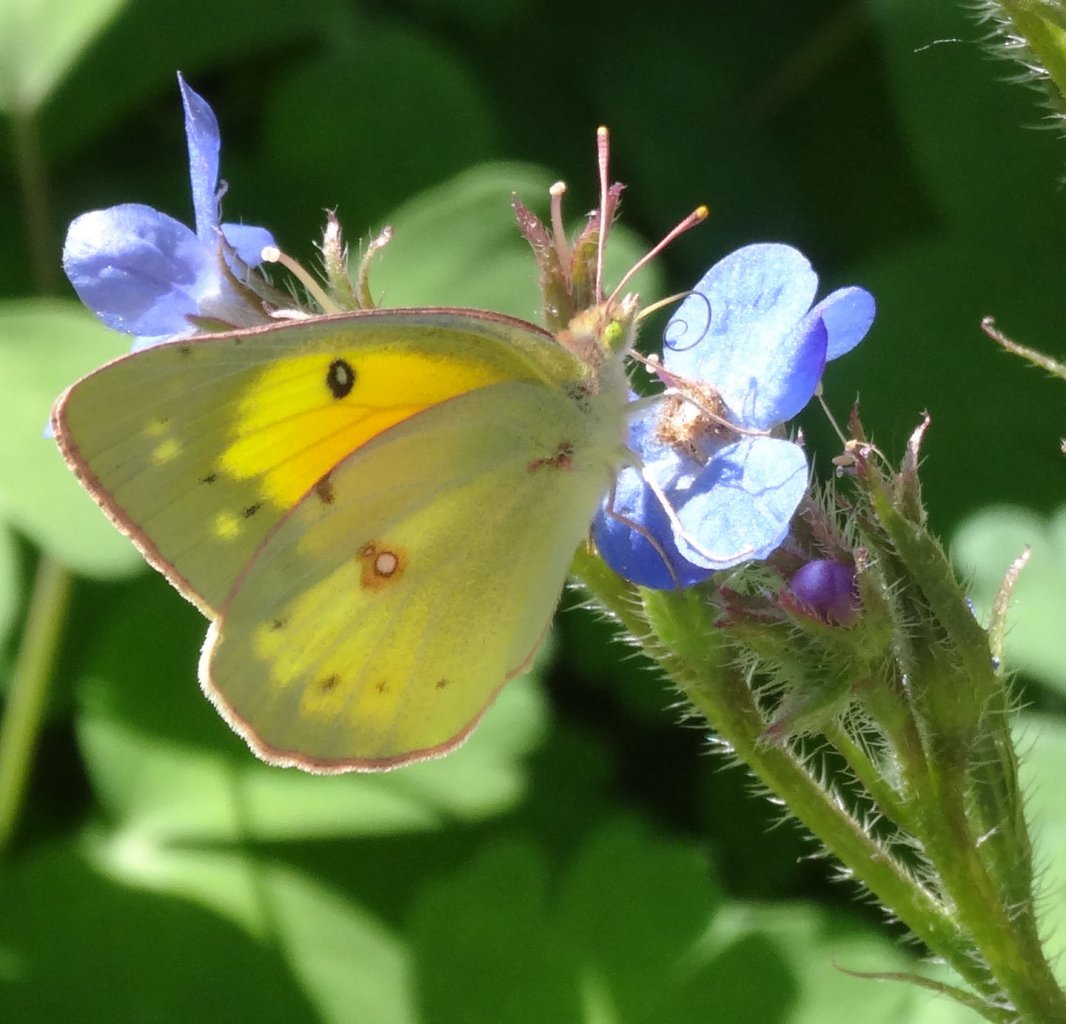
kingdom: Animalia
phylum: Arthropoda
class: Insecta
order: Lepidoptera
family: Pieridae
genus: Colias
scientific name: Colias eurytheme
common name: Orange Sulphur
